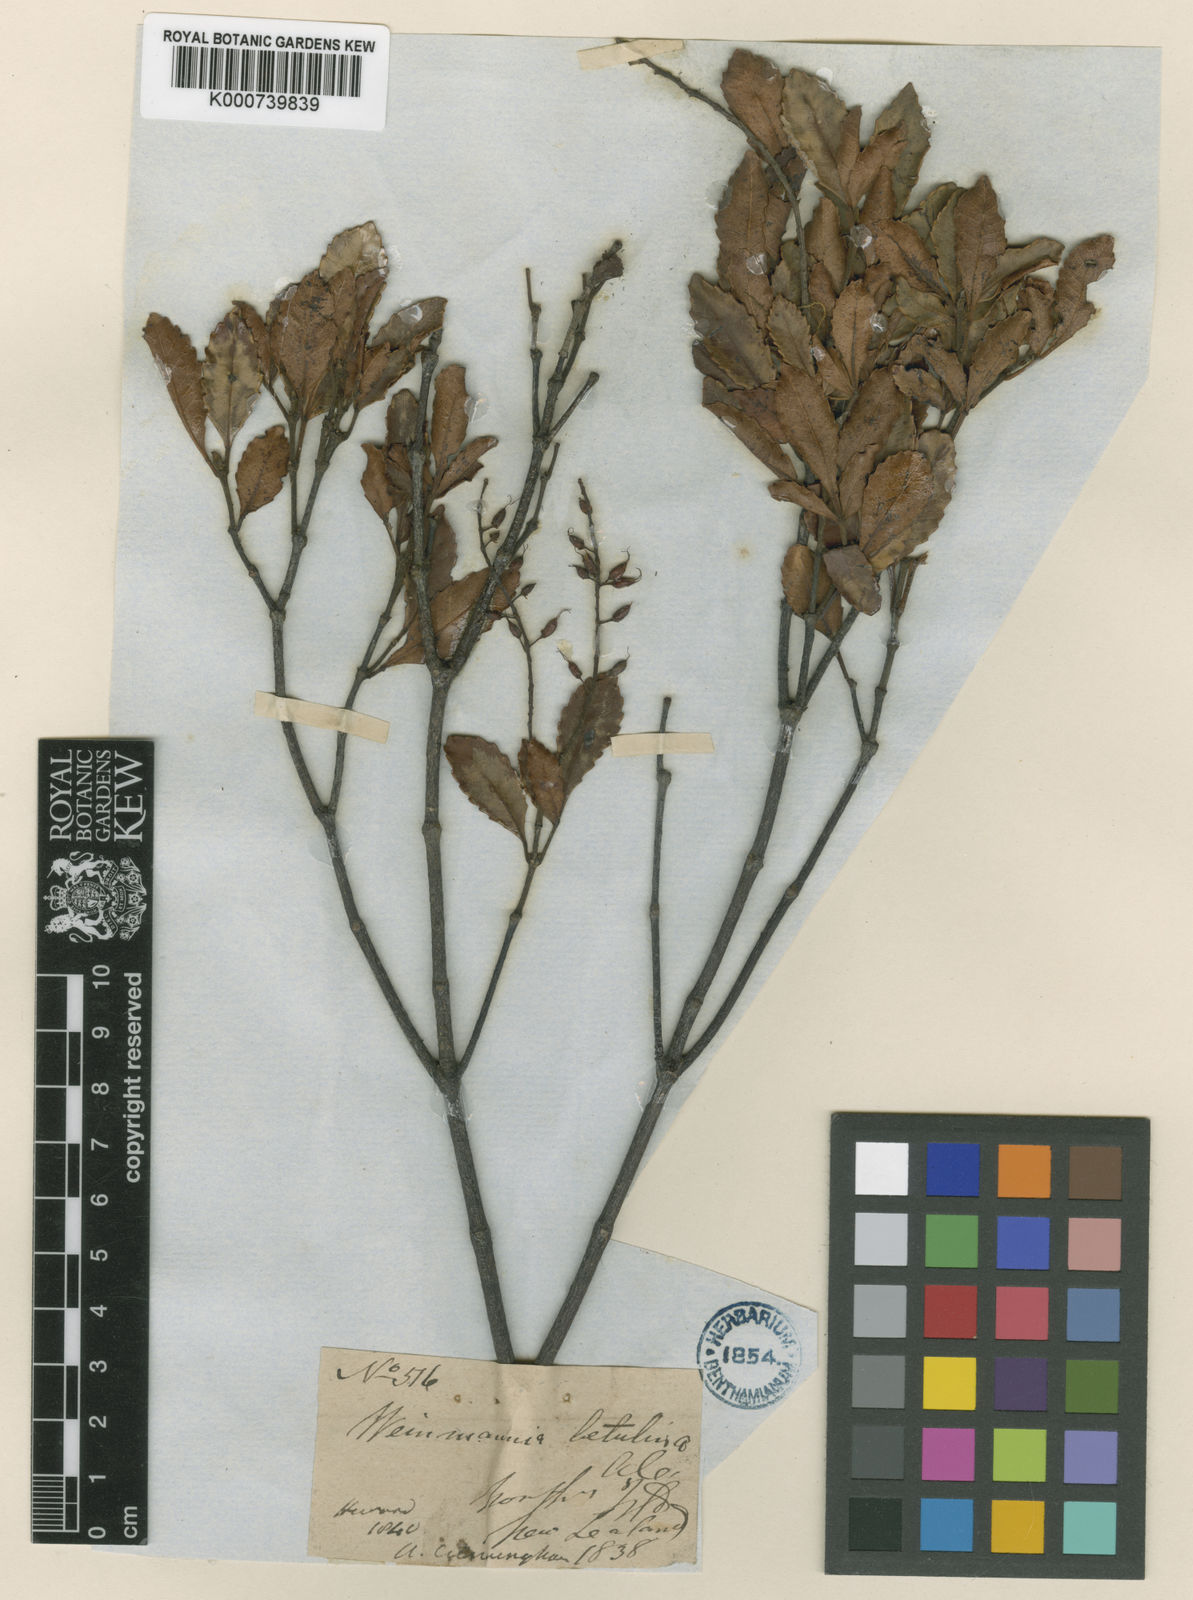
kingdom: Plantae
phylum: Tracheophyta
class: Magnoliopsida
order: Oxalidales
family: Cunoniaceae
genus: Pterophylla
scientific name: Pterophylla sylvicola
